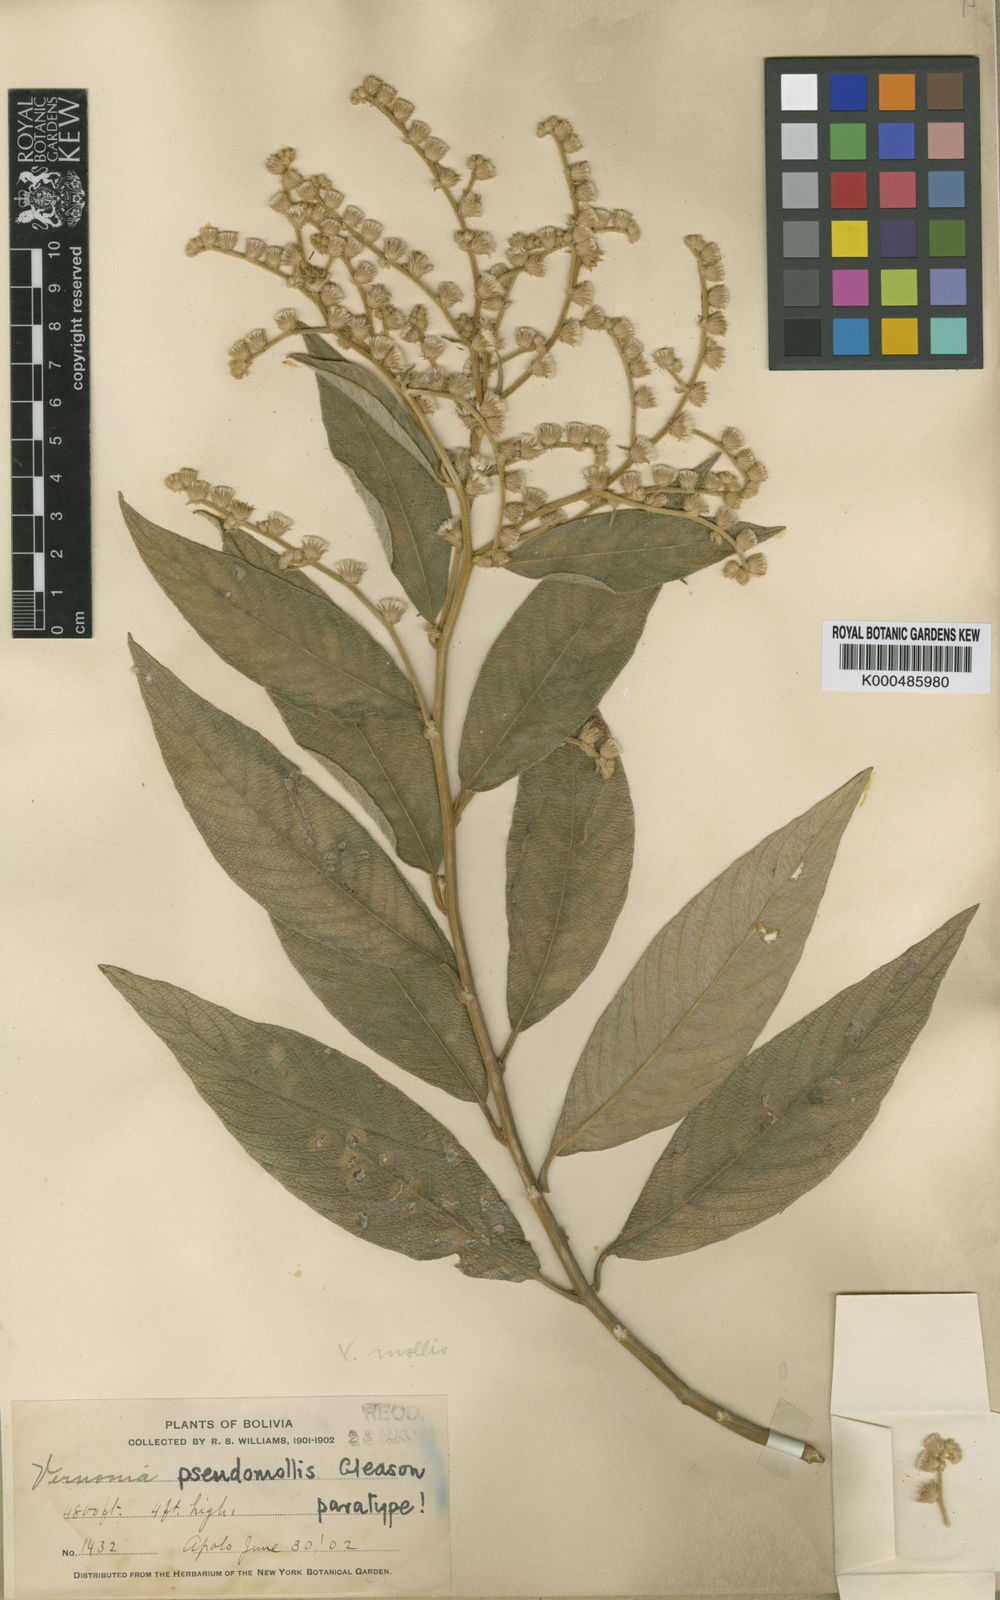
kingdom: Plantae
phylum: Tracheophyta
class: Magnoliopsida
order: Asterales
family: Asteraceae
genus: Lepidaploa
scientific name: Lepidaploa canescens
